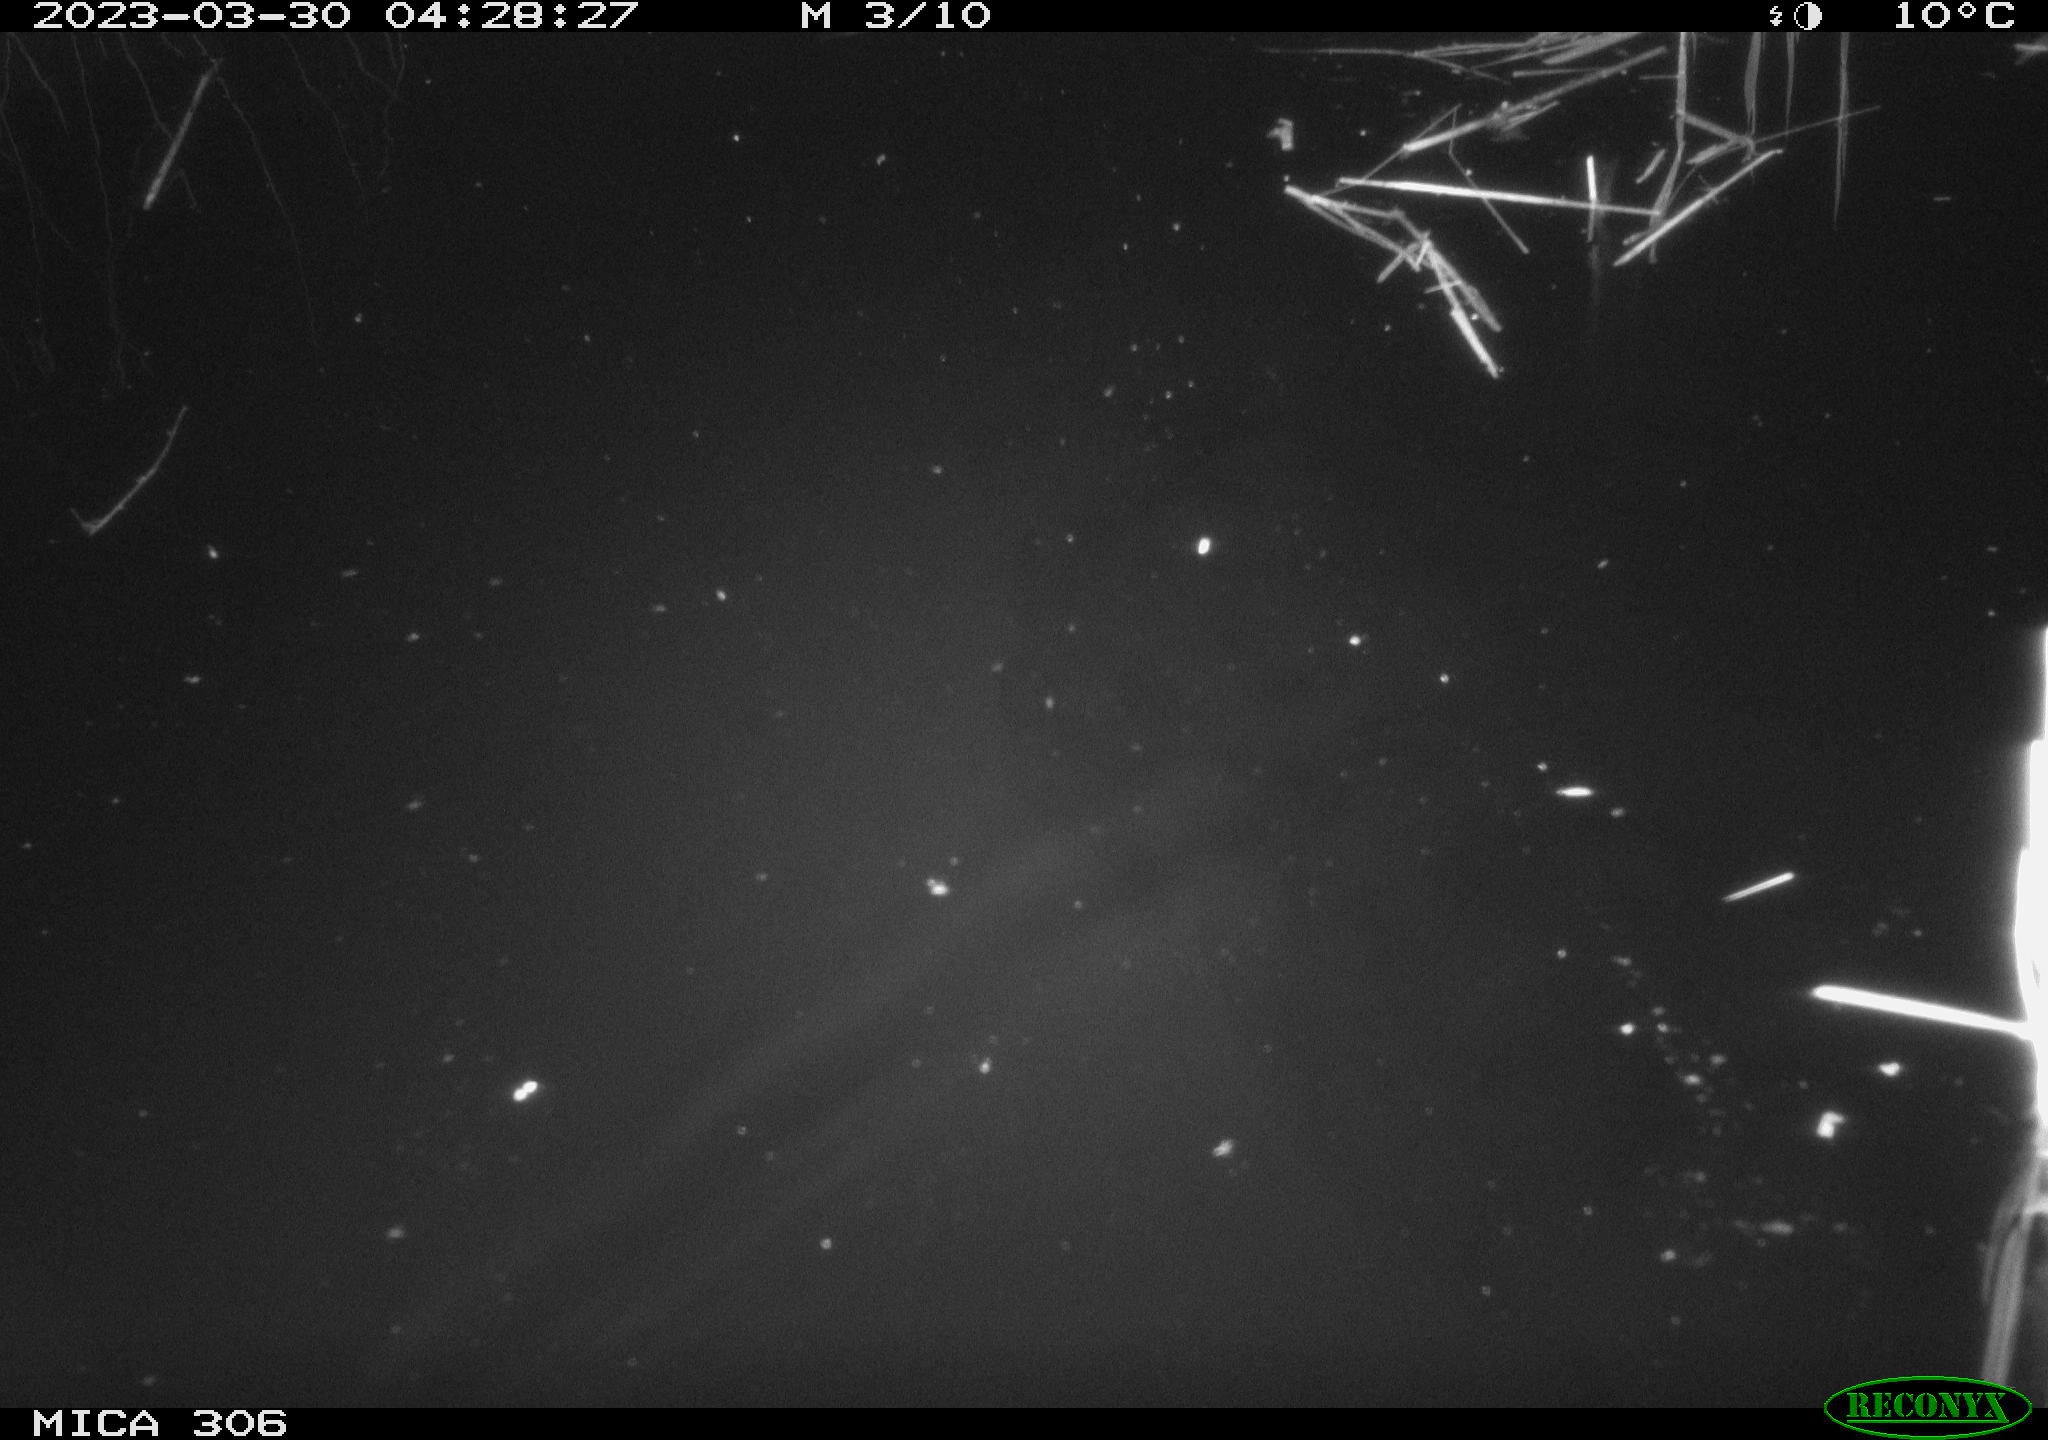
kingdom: Animalia
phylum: Chordata
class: Aves
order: Anseriformes
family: Anatidae
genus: Anas
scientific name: Anas
